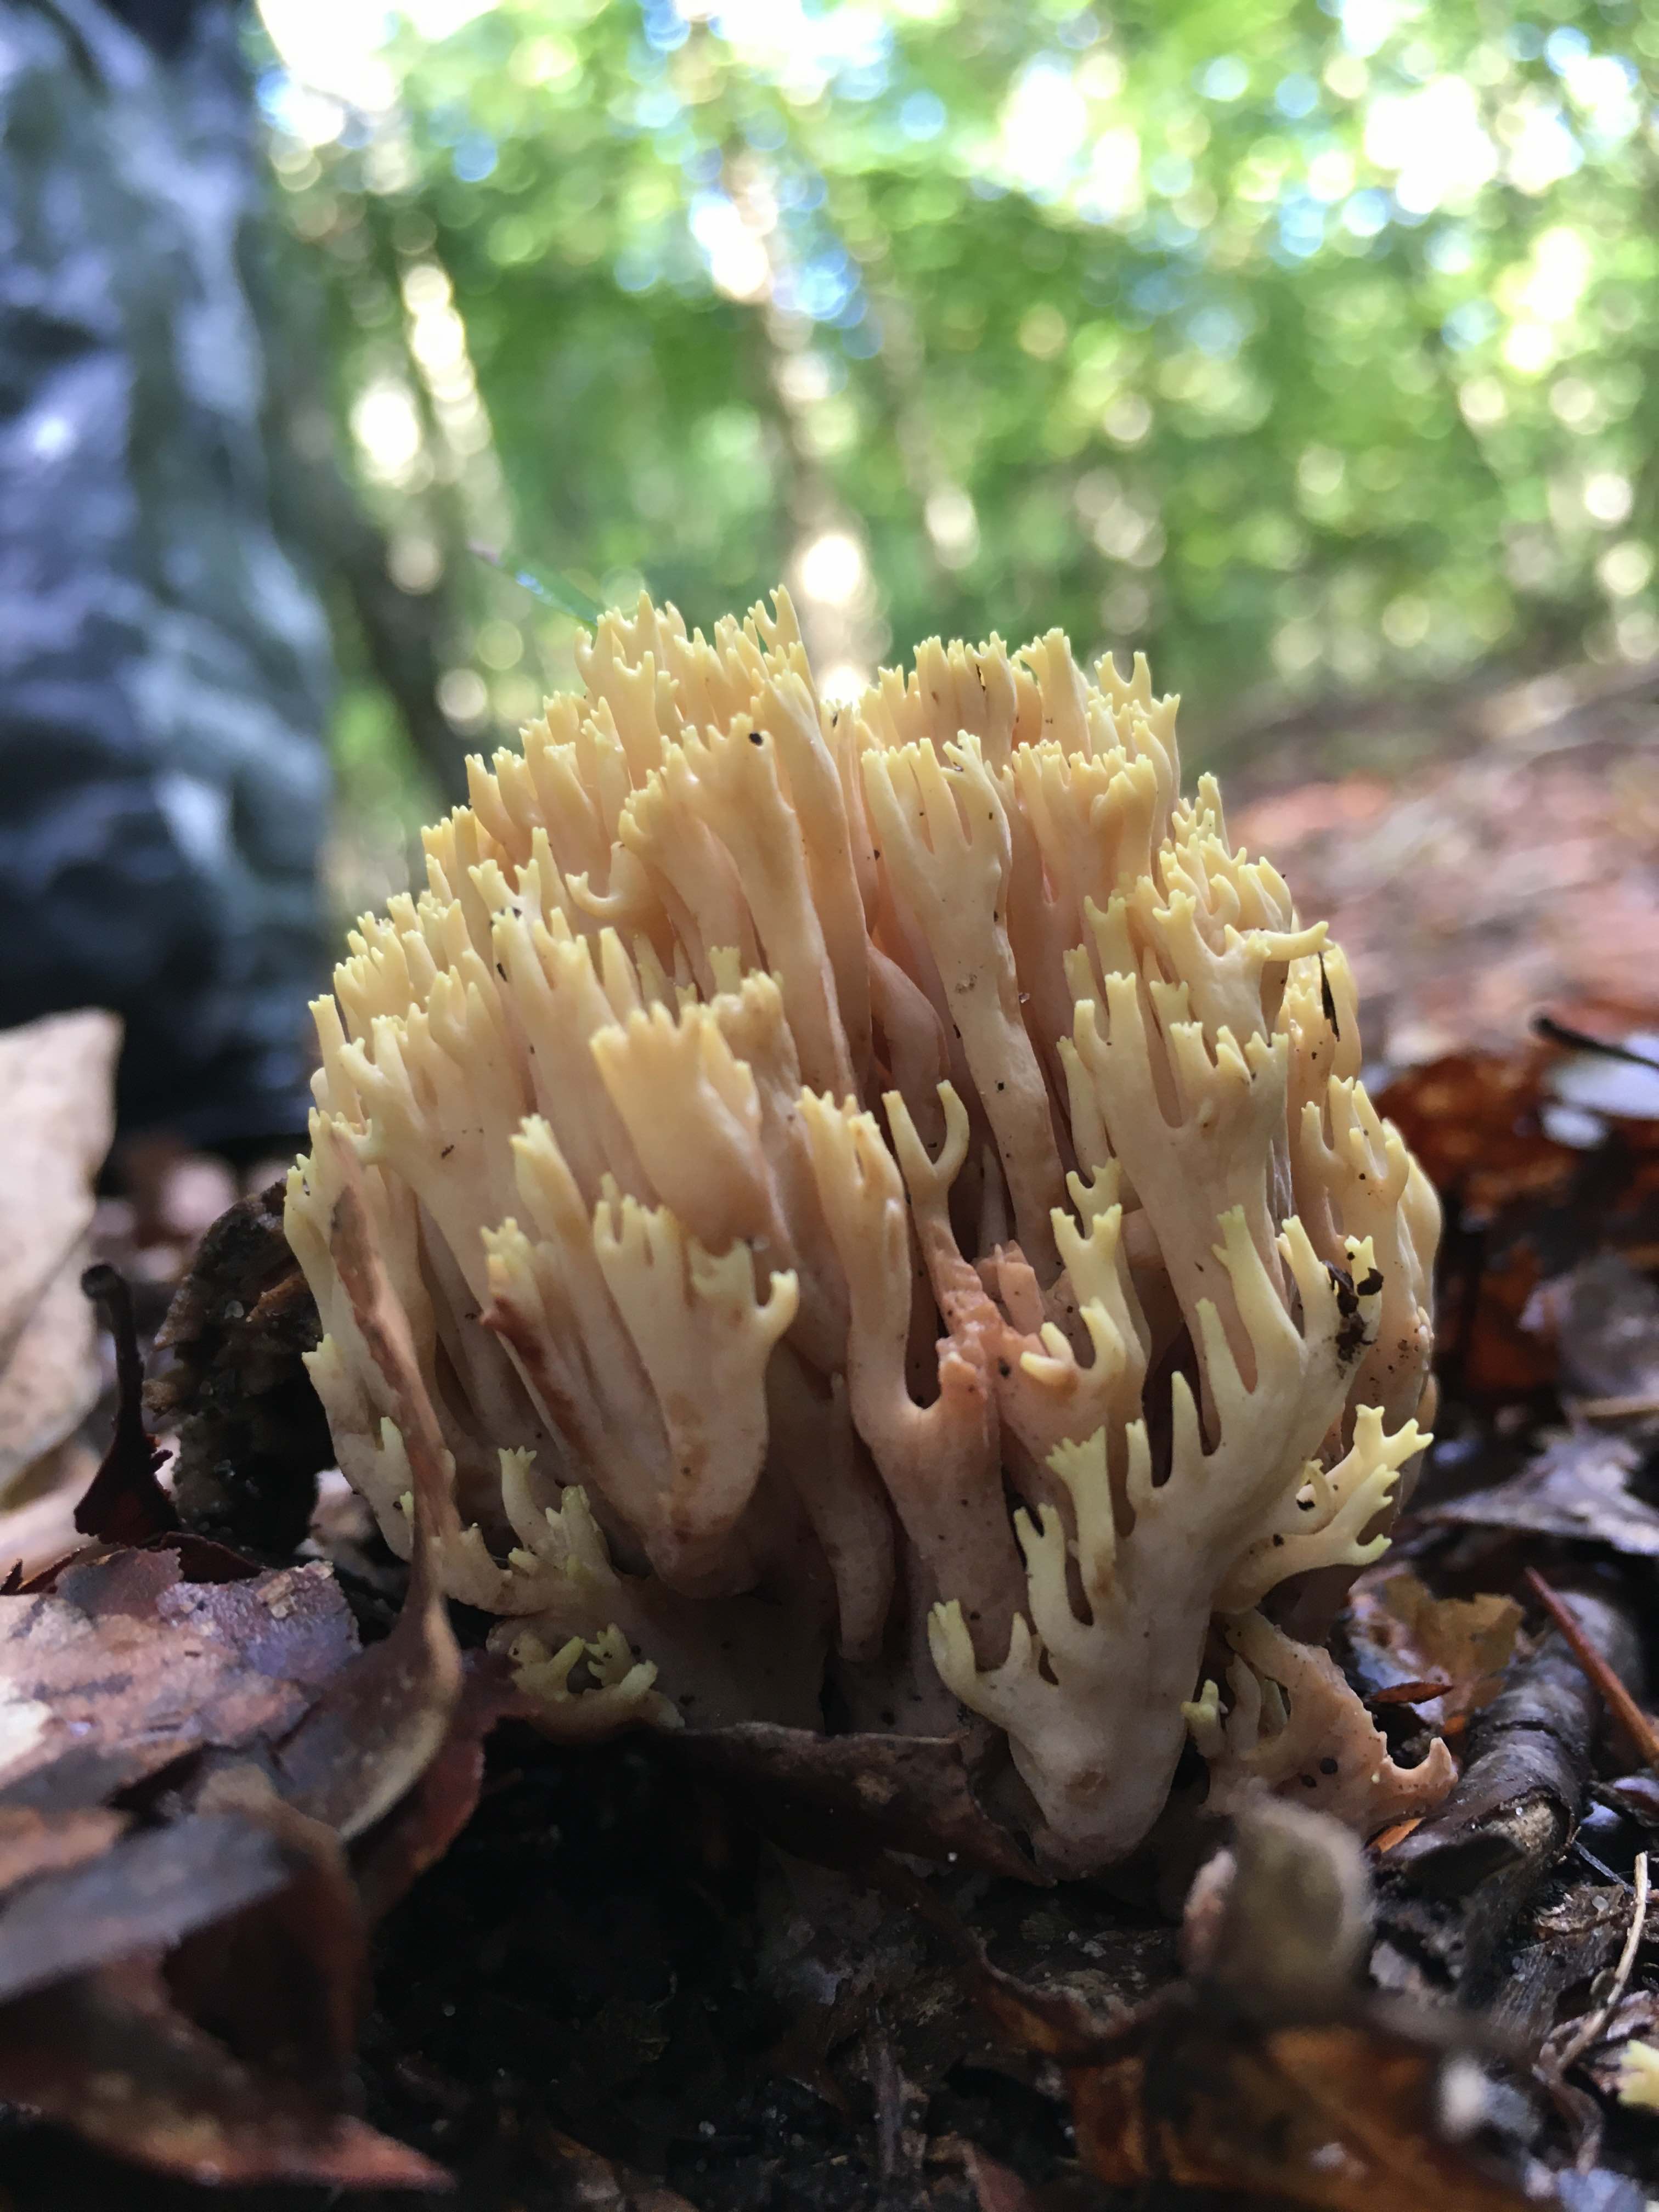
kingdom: Fungi
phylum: Basidiomycota
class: Agaricomycetes
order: Gomphales
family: Gomphaceae
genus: Ramaria
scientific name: Ramaria stricta
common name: rank koralsvamp
